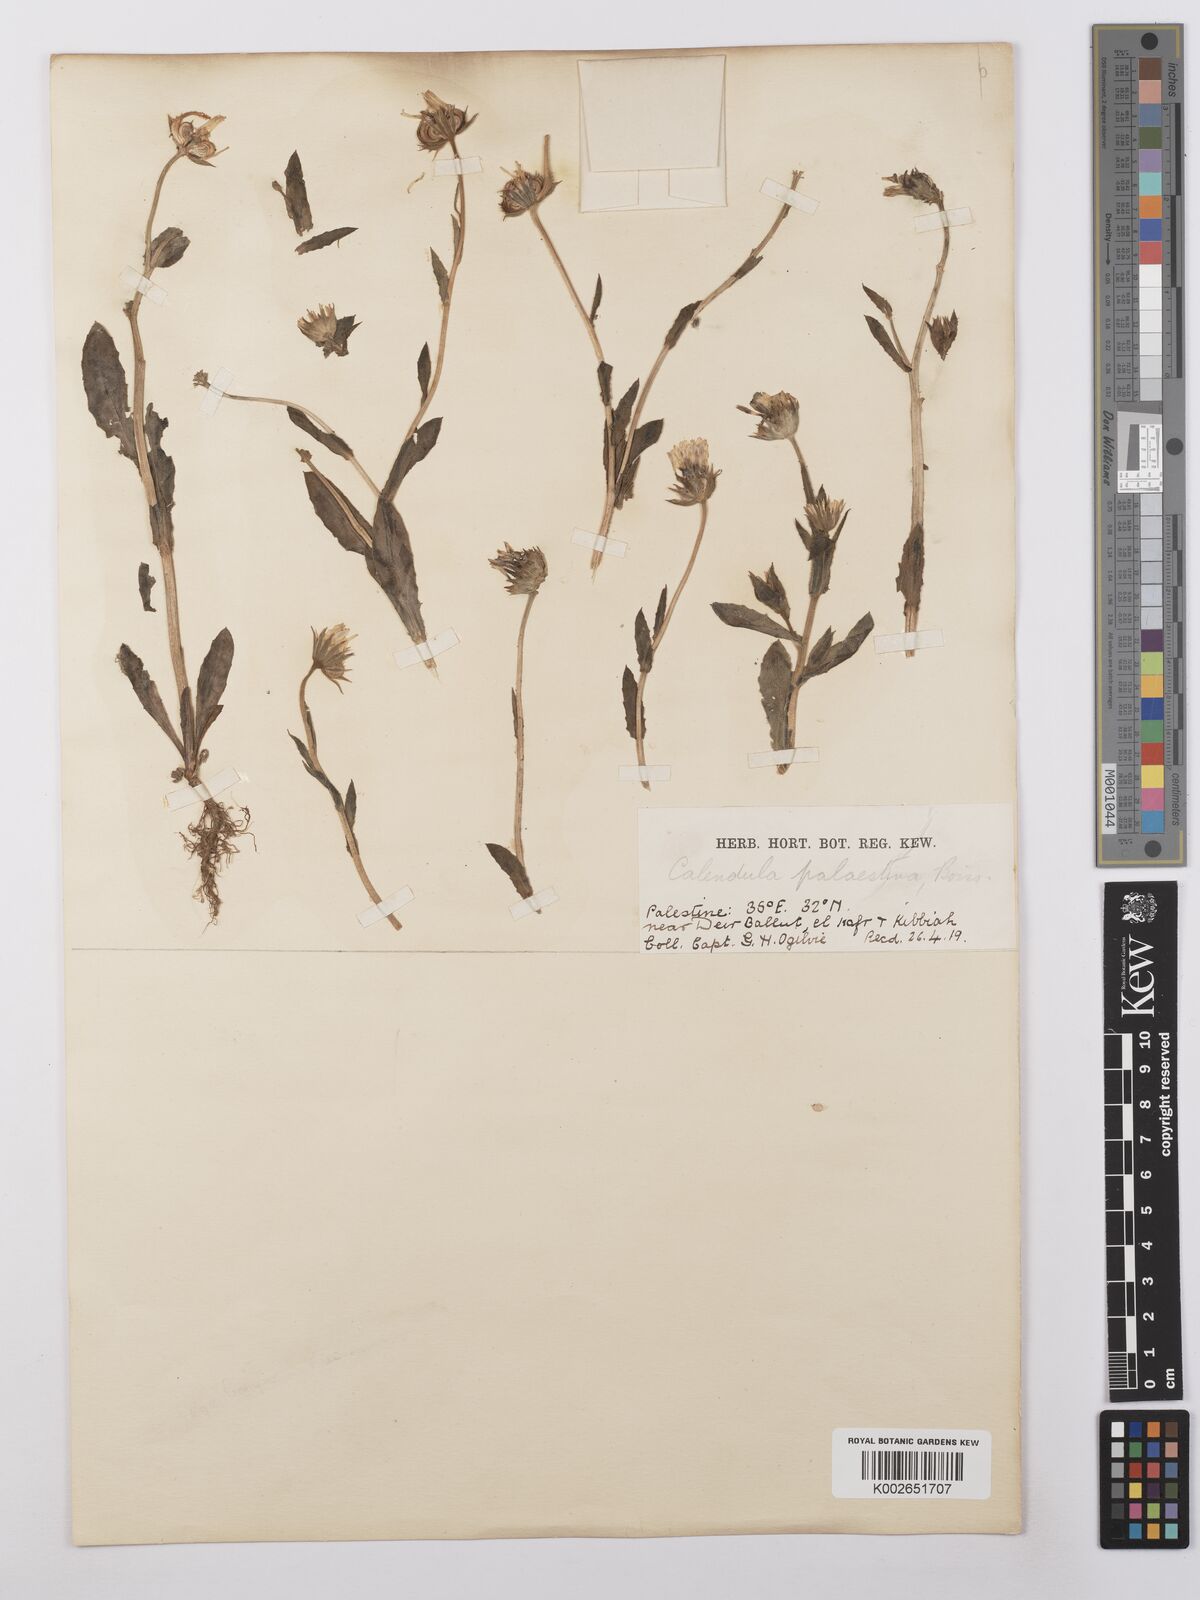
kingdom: Plantae
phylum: Tracheophyta
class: Magnoliopsida
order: Asterales
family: Asteraceae
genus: Calendula
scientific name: Calendula palaestina
